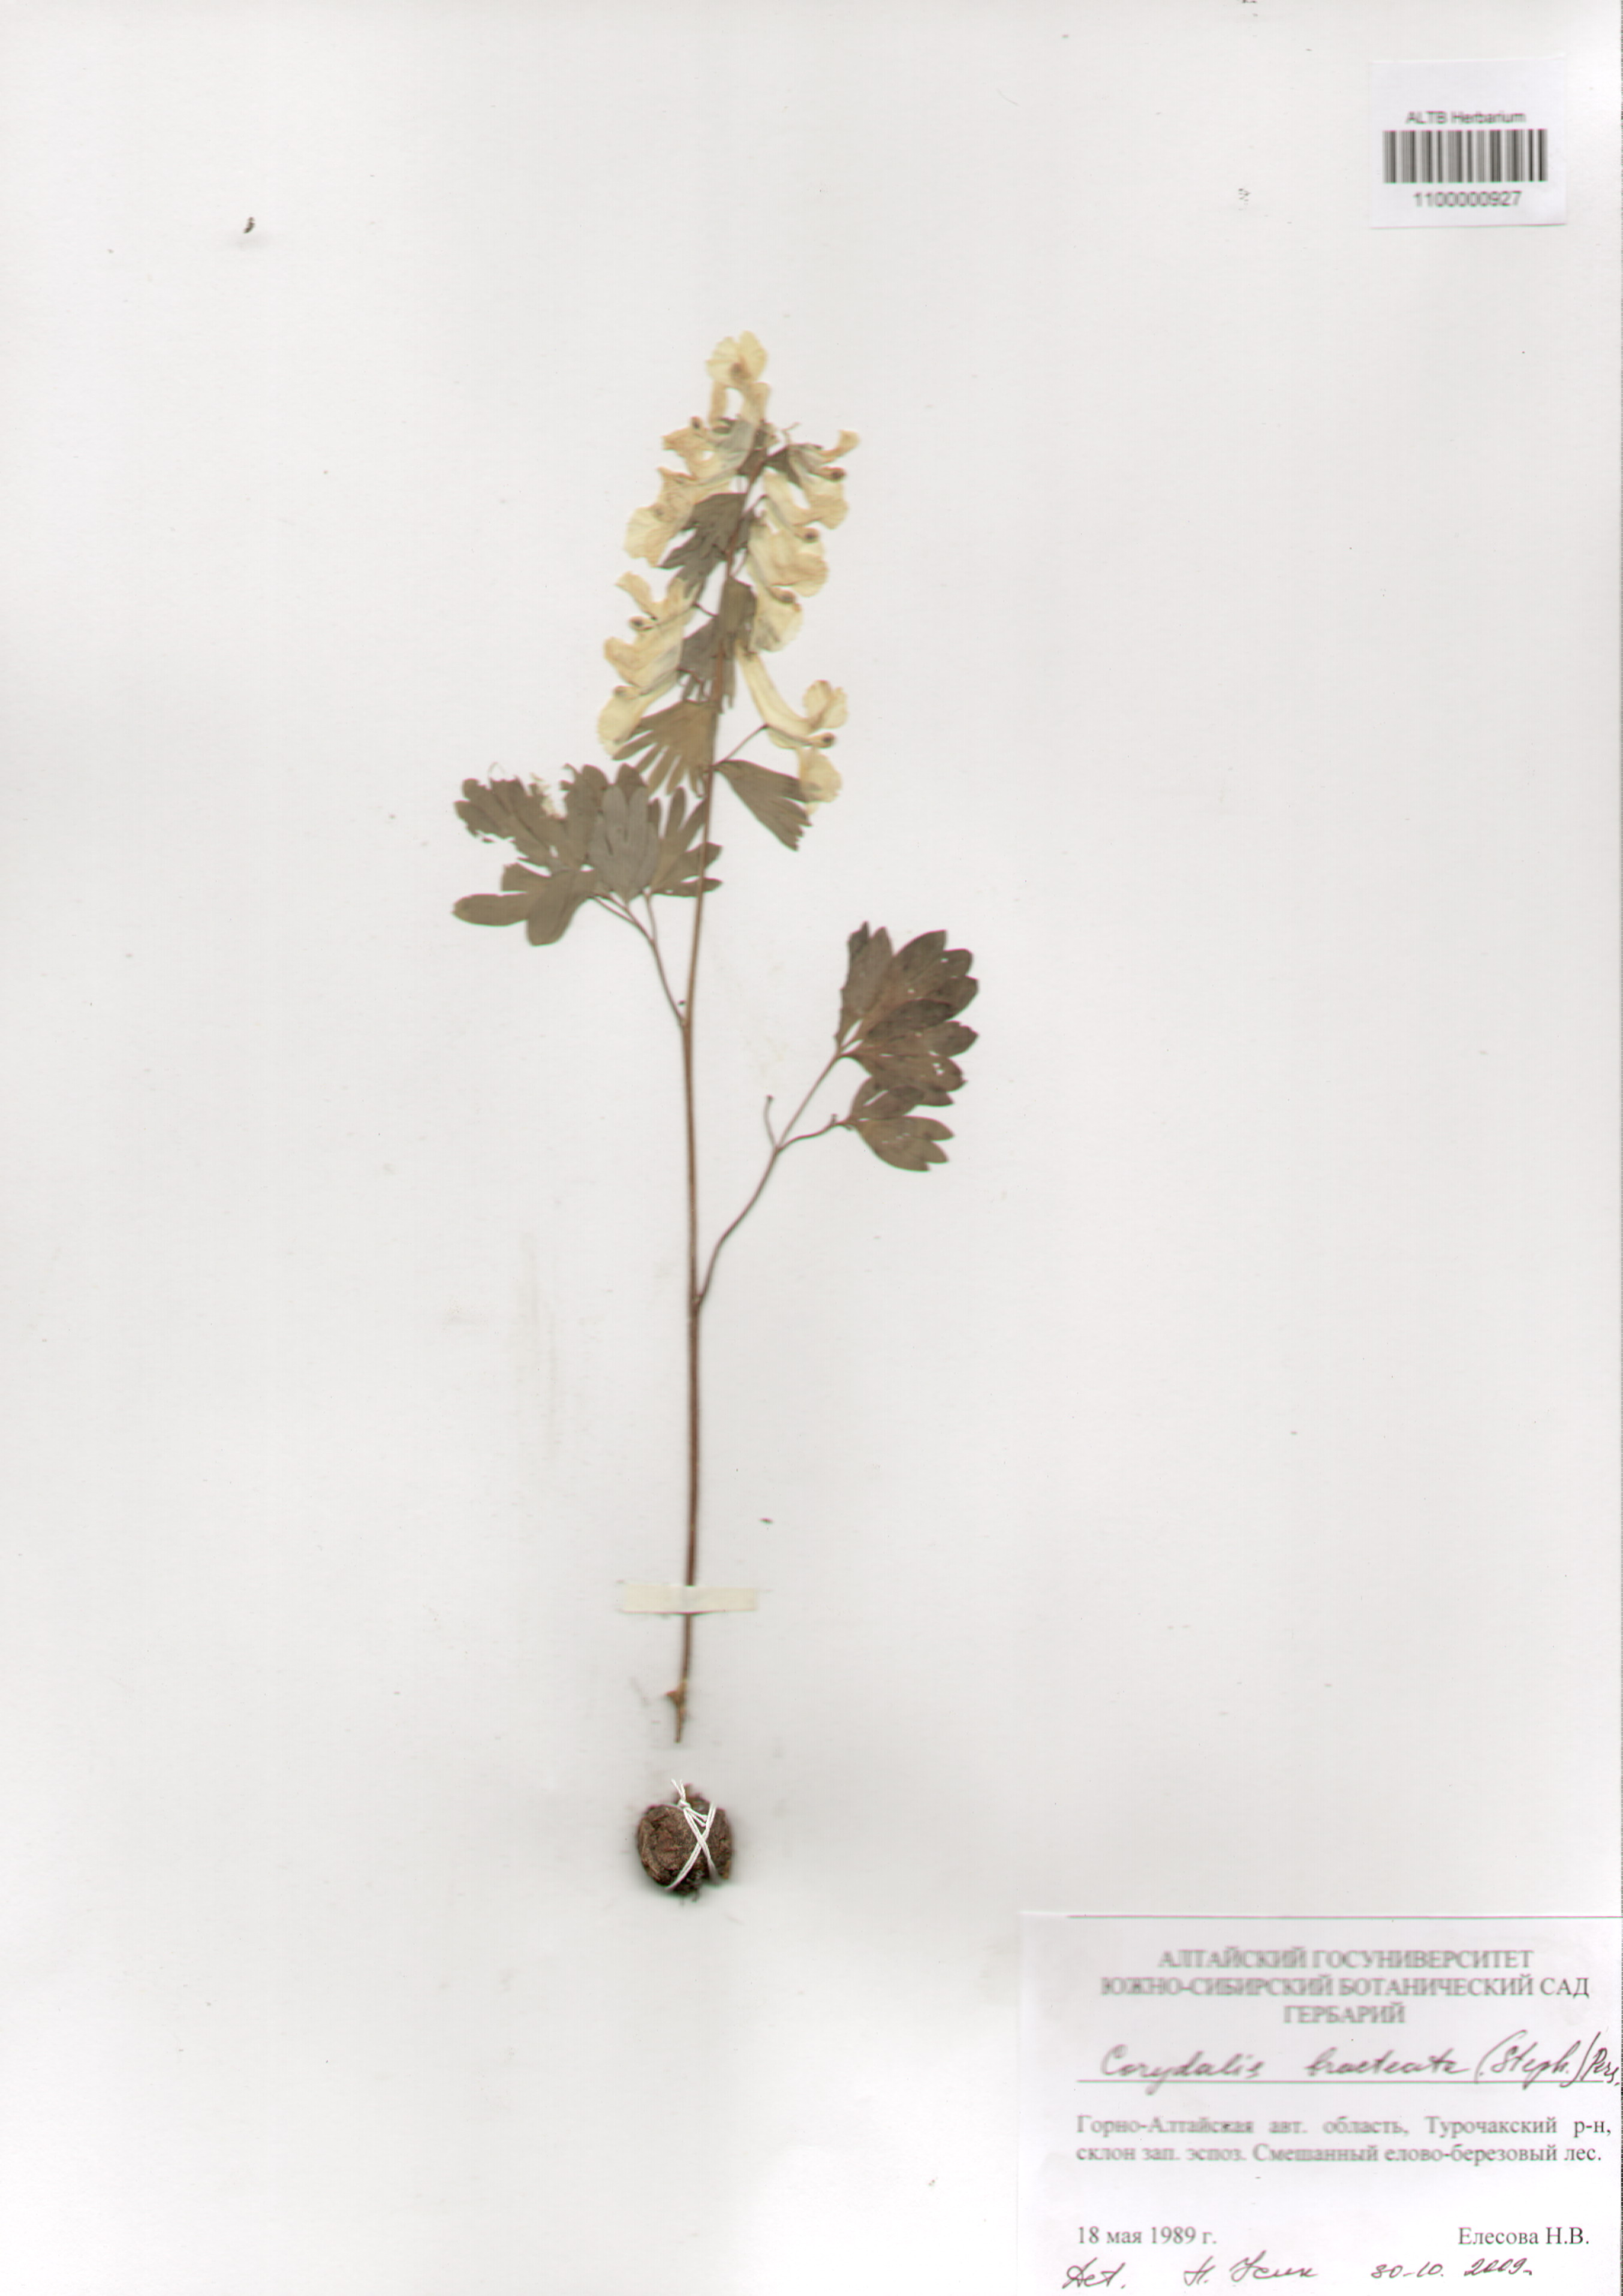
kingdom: Plantae
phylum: Tracheophyta
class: Magnoliopsida
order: Ranunculales
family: Papaveraceae
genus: Corydalis
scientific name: Corydalis bracteata
